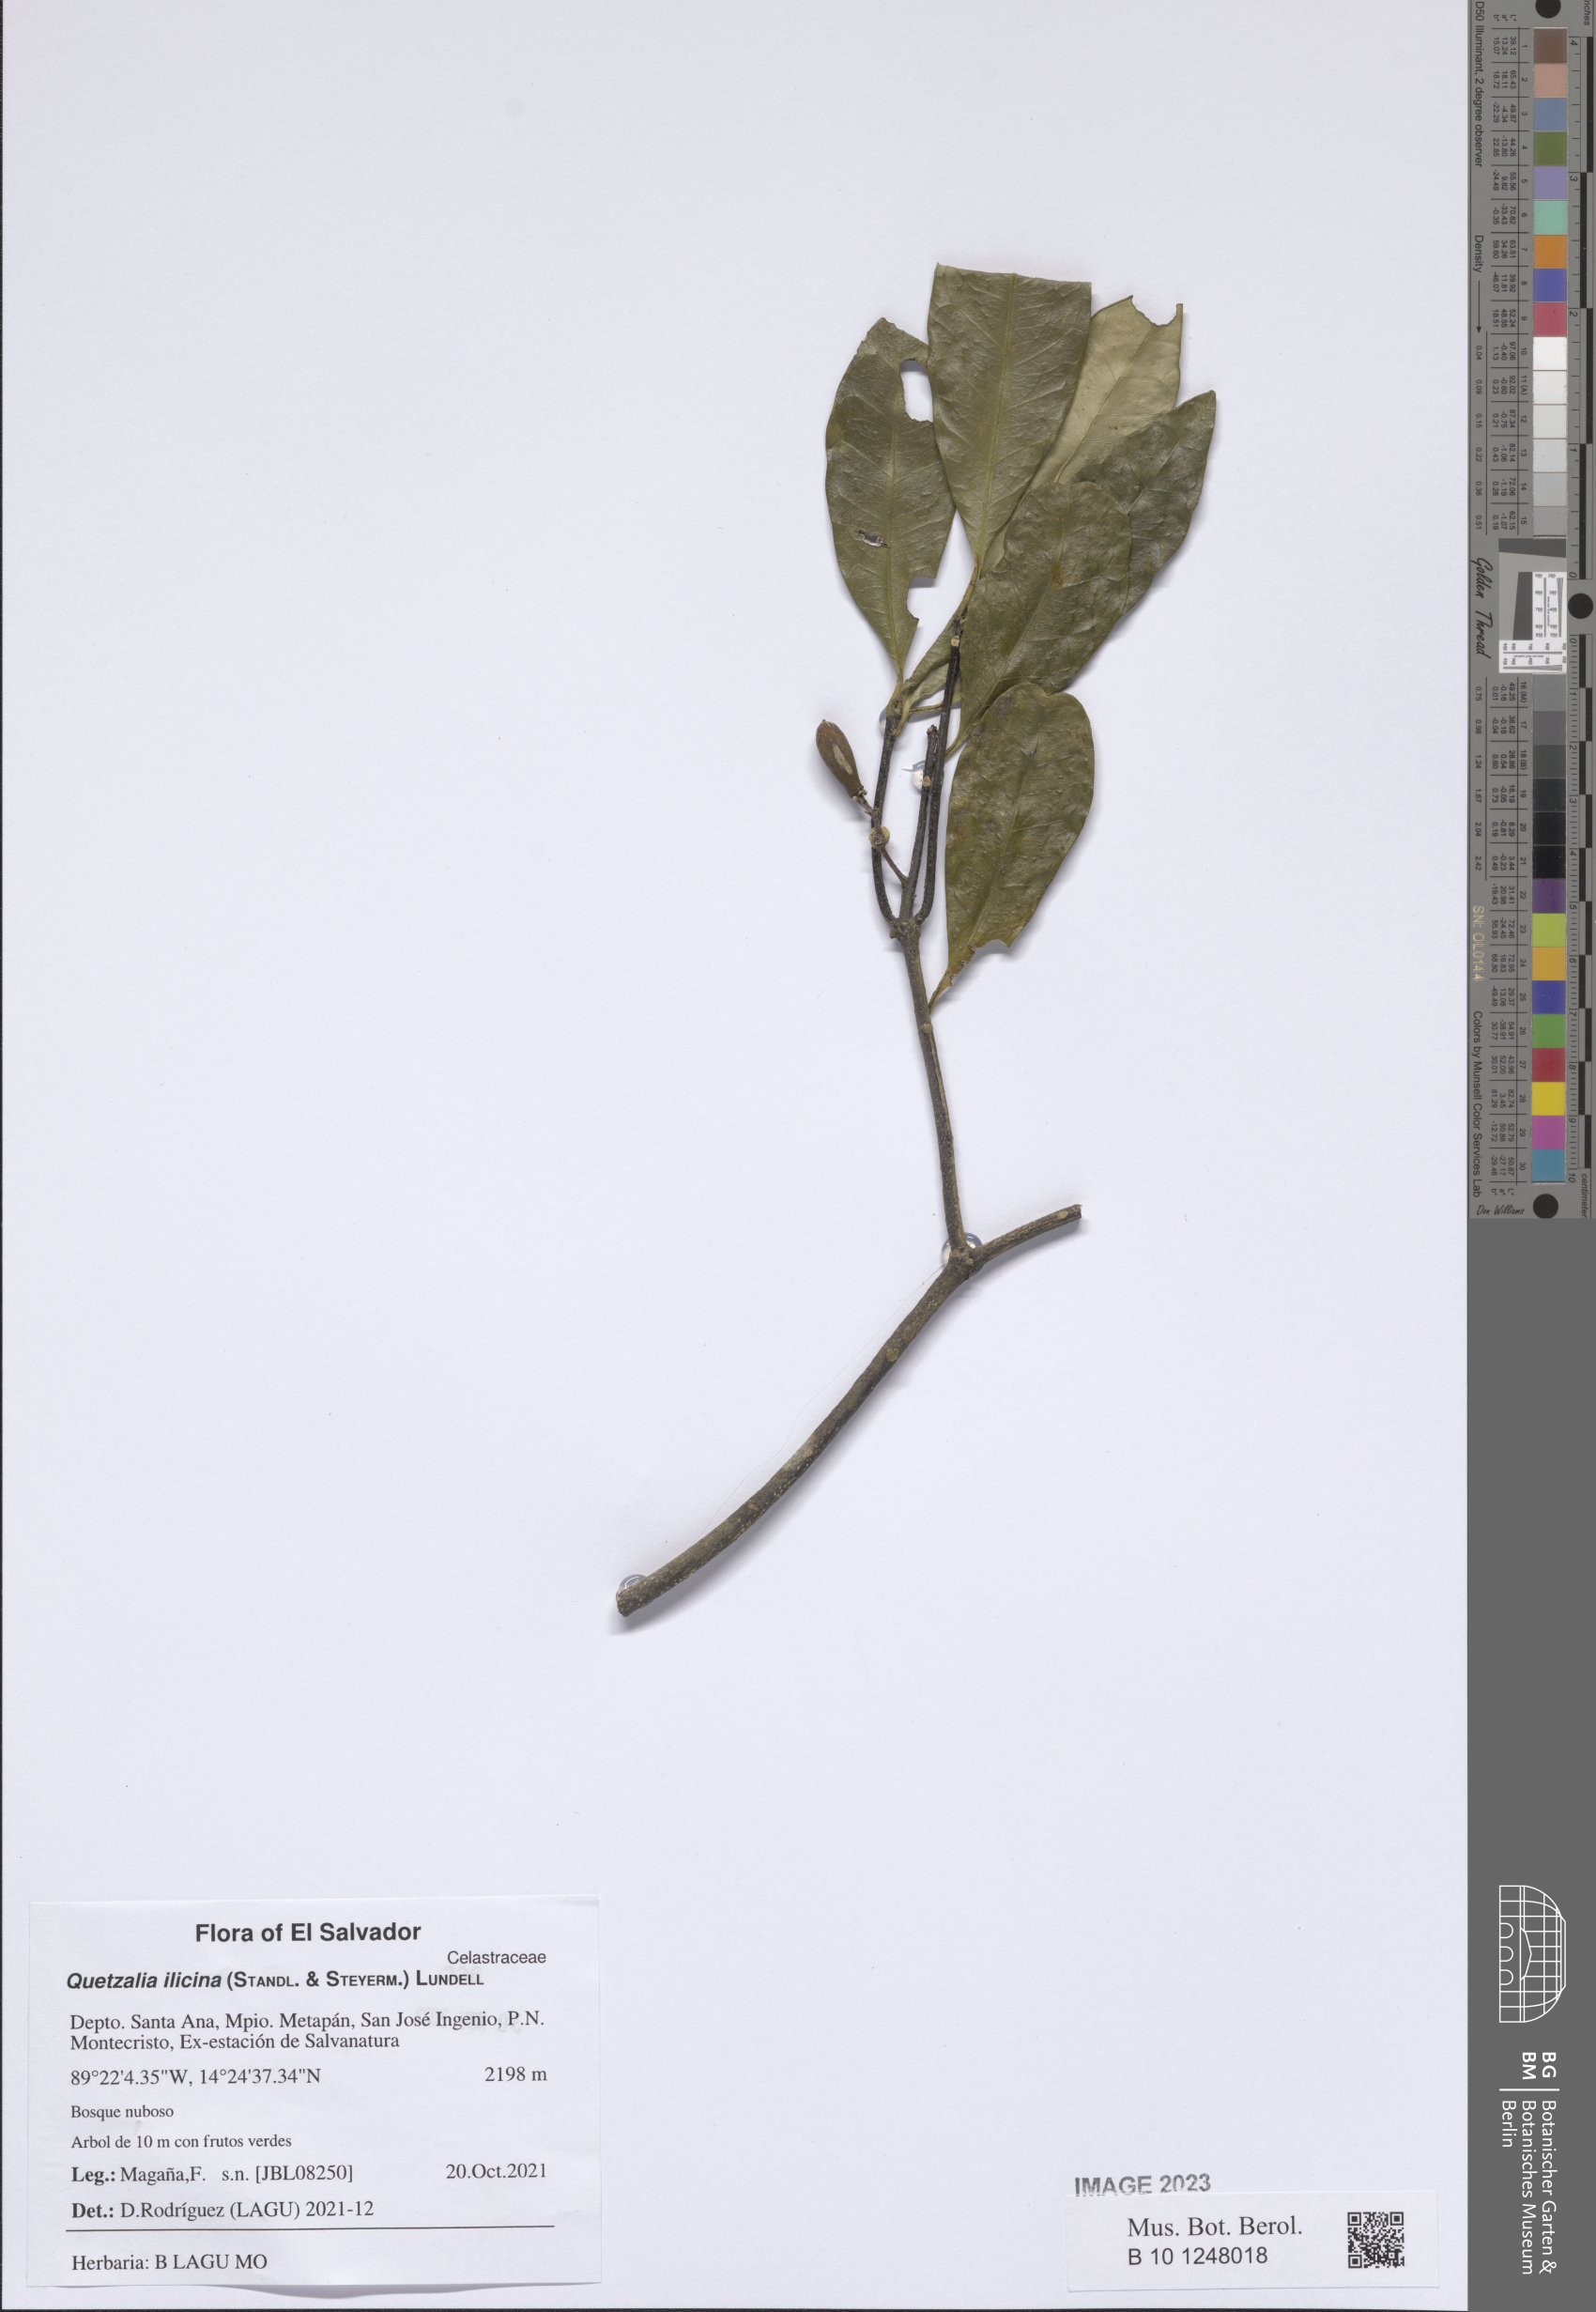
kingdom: Plantae
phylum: Tracheophyta
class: Magnoliopsida
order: Celastrales
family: Celastraceae
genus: Quetzalia
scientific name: Quetzalia ilicina
